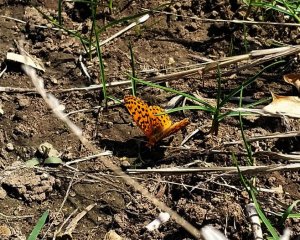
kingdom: Animalia
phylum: Arthropoda
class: Insecta
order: Lepidoptera
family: Nymphalidae
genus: Clossiana
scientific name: Clossiana toddi
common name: Meadow Fritillary
